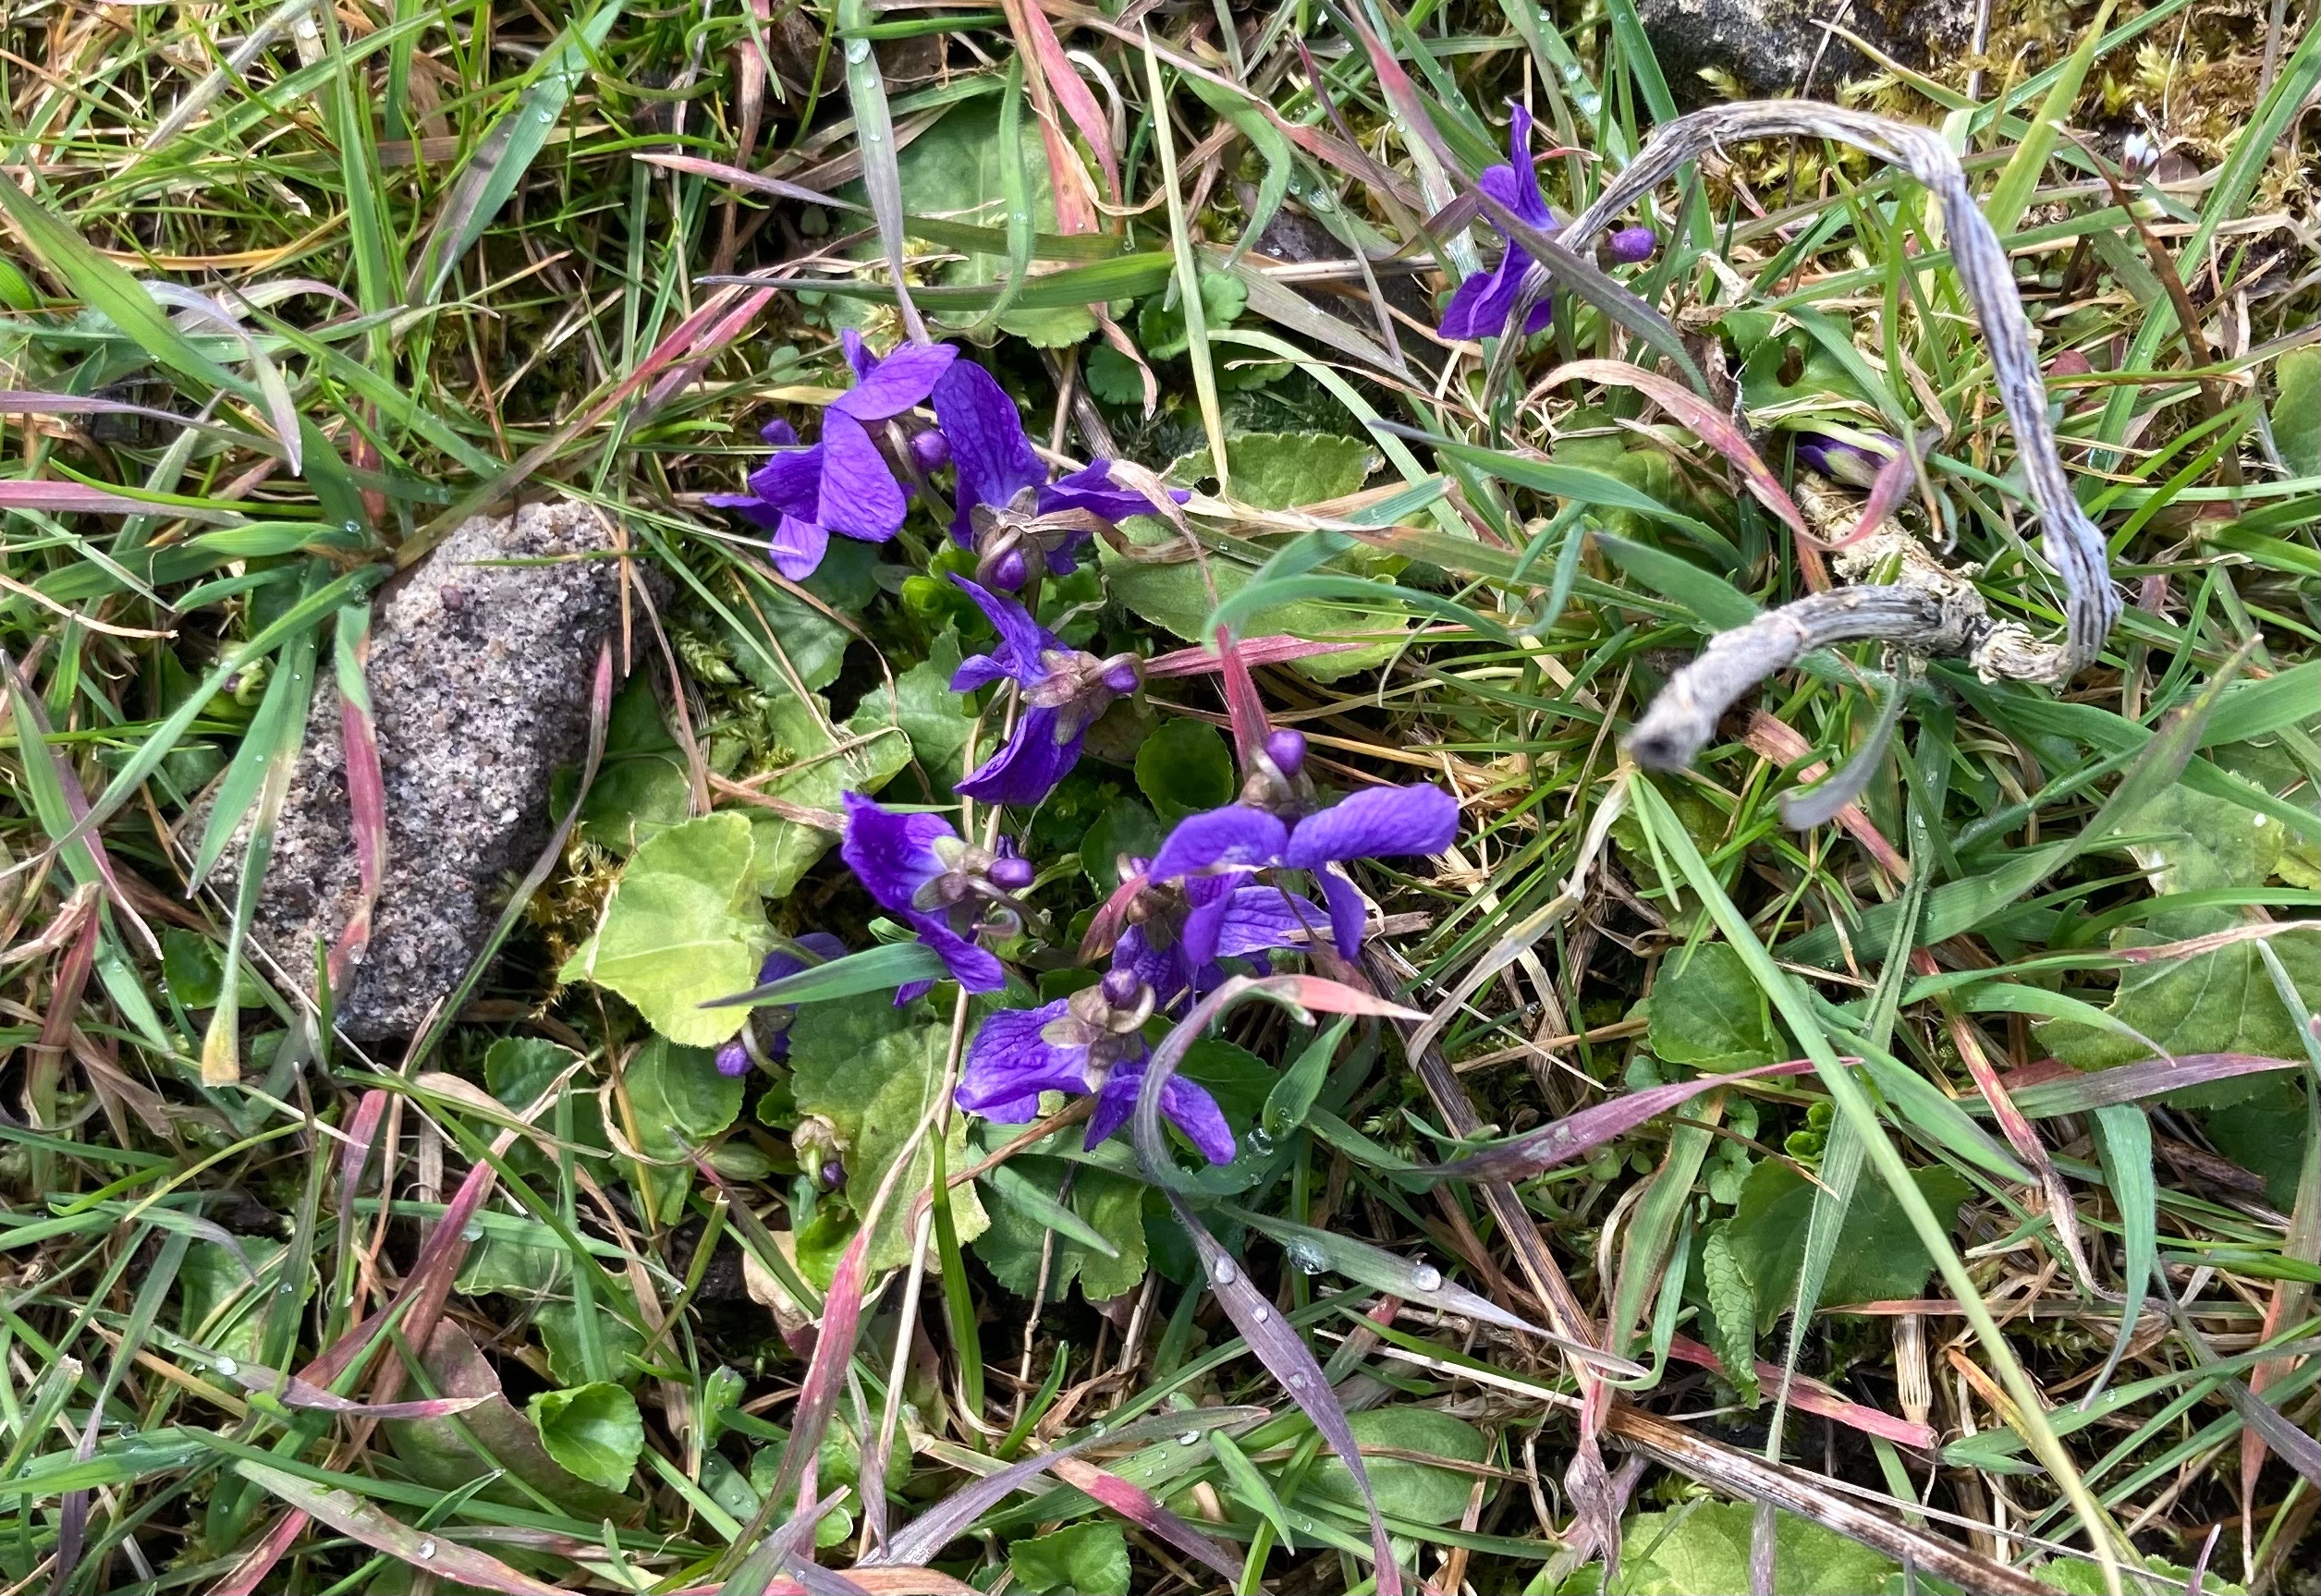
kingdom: Plantae
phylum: Tracheophyta
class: Magnoliopsida
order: Malpighiales
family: Violaceae
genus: Viola
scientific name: Viola odorata
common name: Marts-viol
